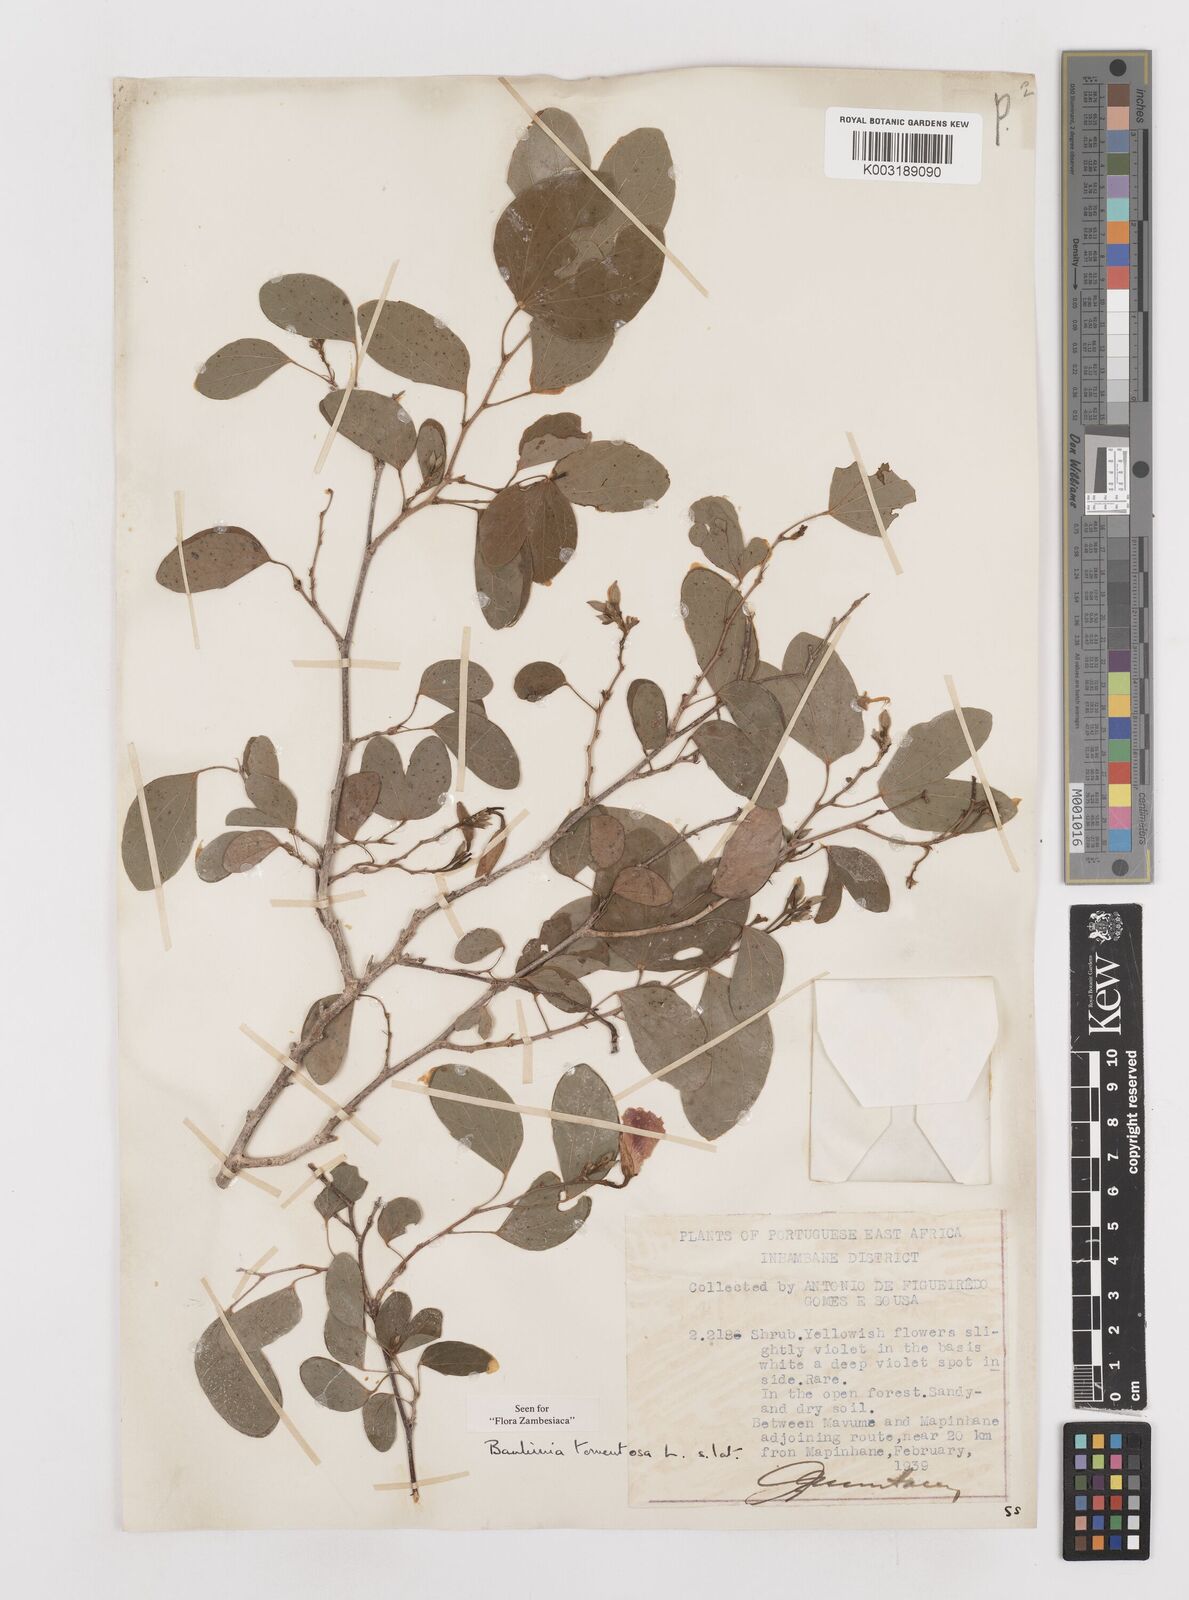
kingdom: Plantae
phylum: Tracheophyta
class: Magnoliopsida
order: Fabales
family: Fabaceae
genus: Bauhinia
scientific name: Bauhinia tomentosa
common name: Bell bauhinia
